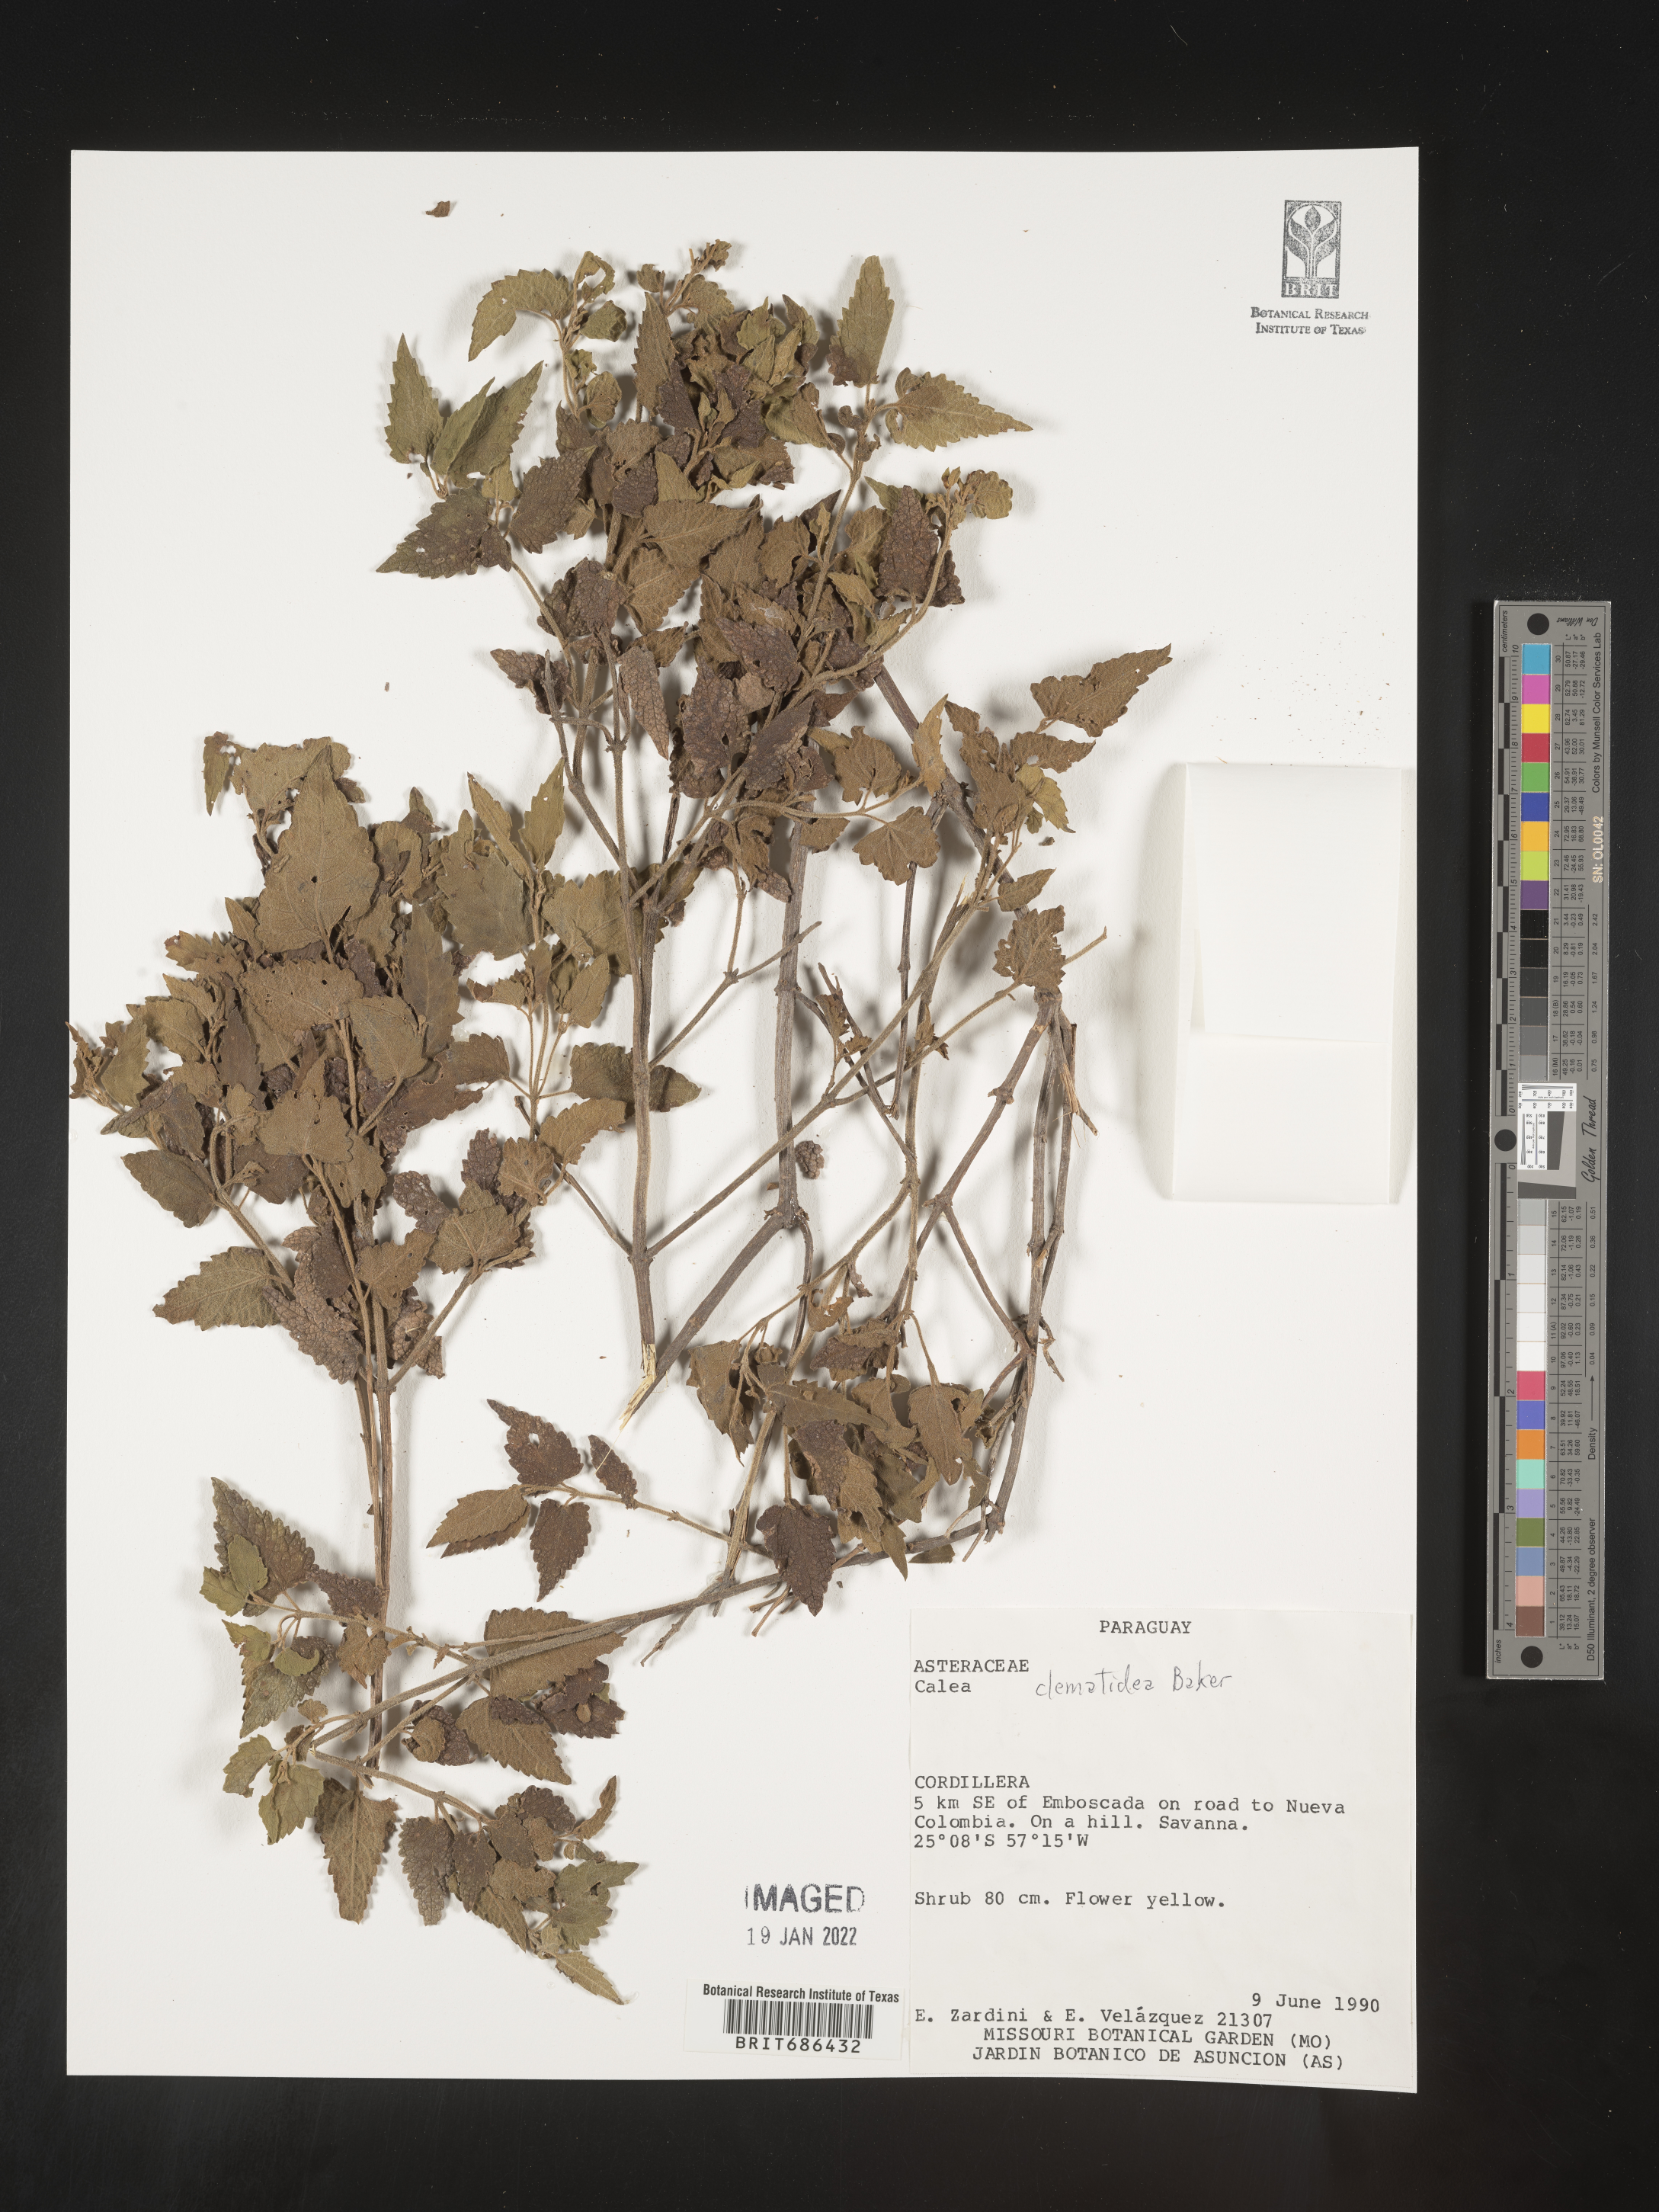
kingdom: Plantae
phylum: Tracheophyta
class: Magnoliopsida
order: Asterales
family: Asteraceae
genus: Calea
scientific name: Calea
